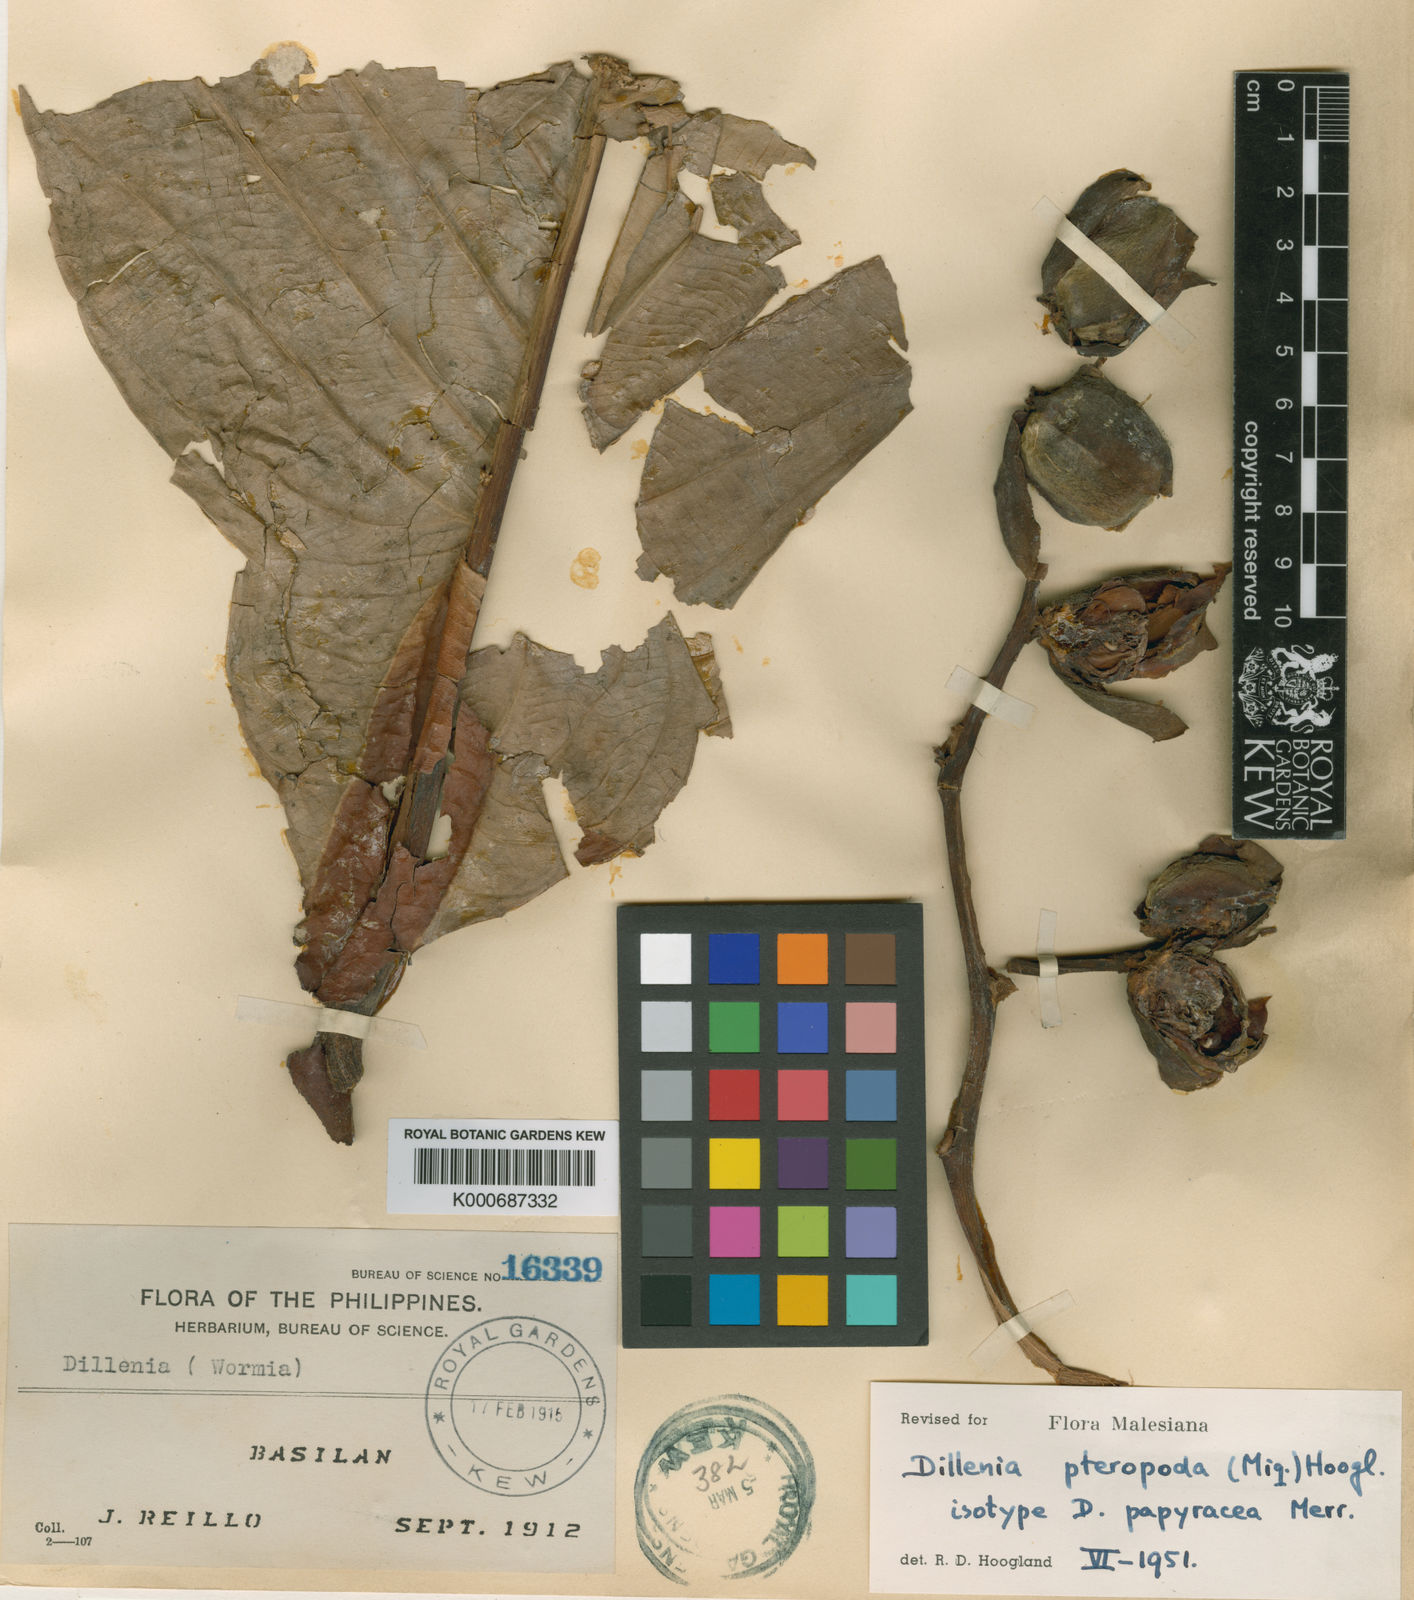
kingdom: Plantae
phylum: Tracheophyta
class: Magnoliopsida
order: Dilleniales
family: Dilleniaceae
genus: Dillenia
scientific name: Dillenia pteropoda
